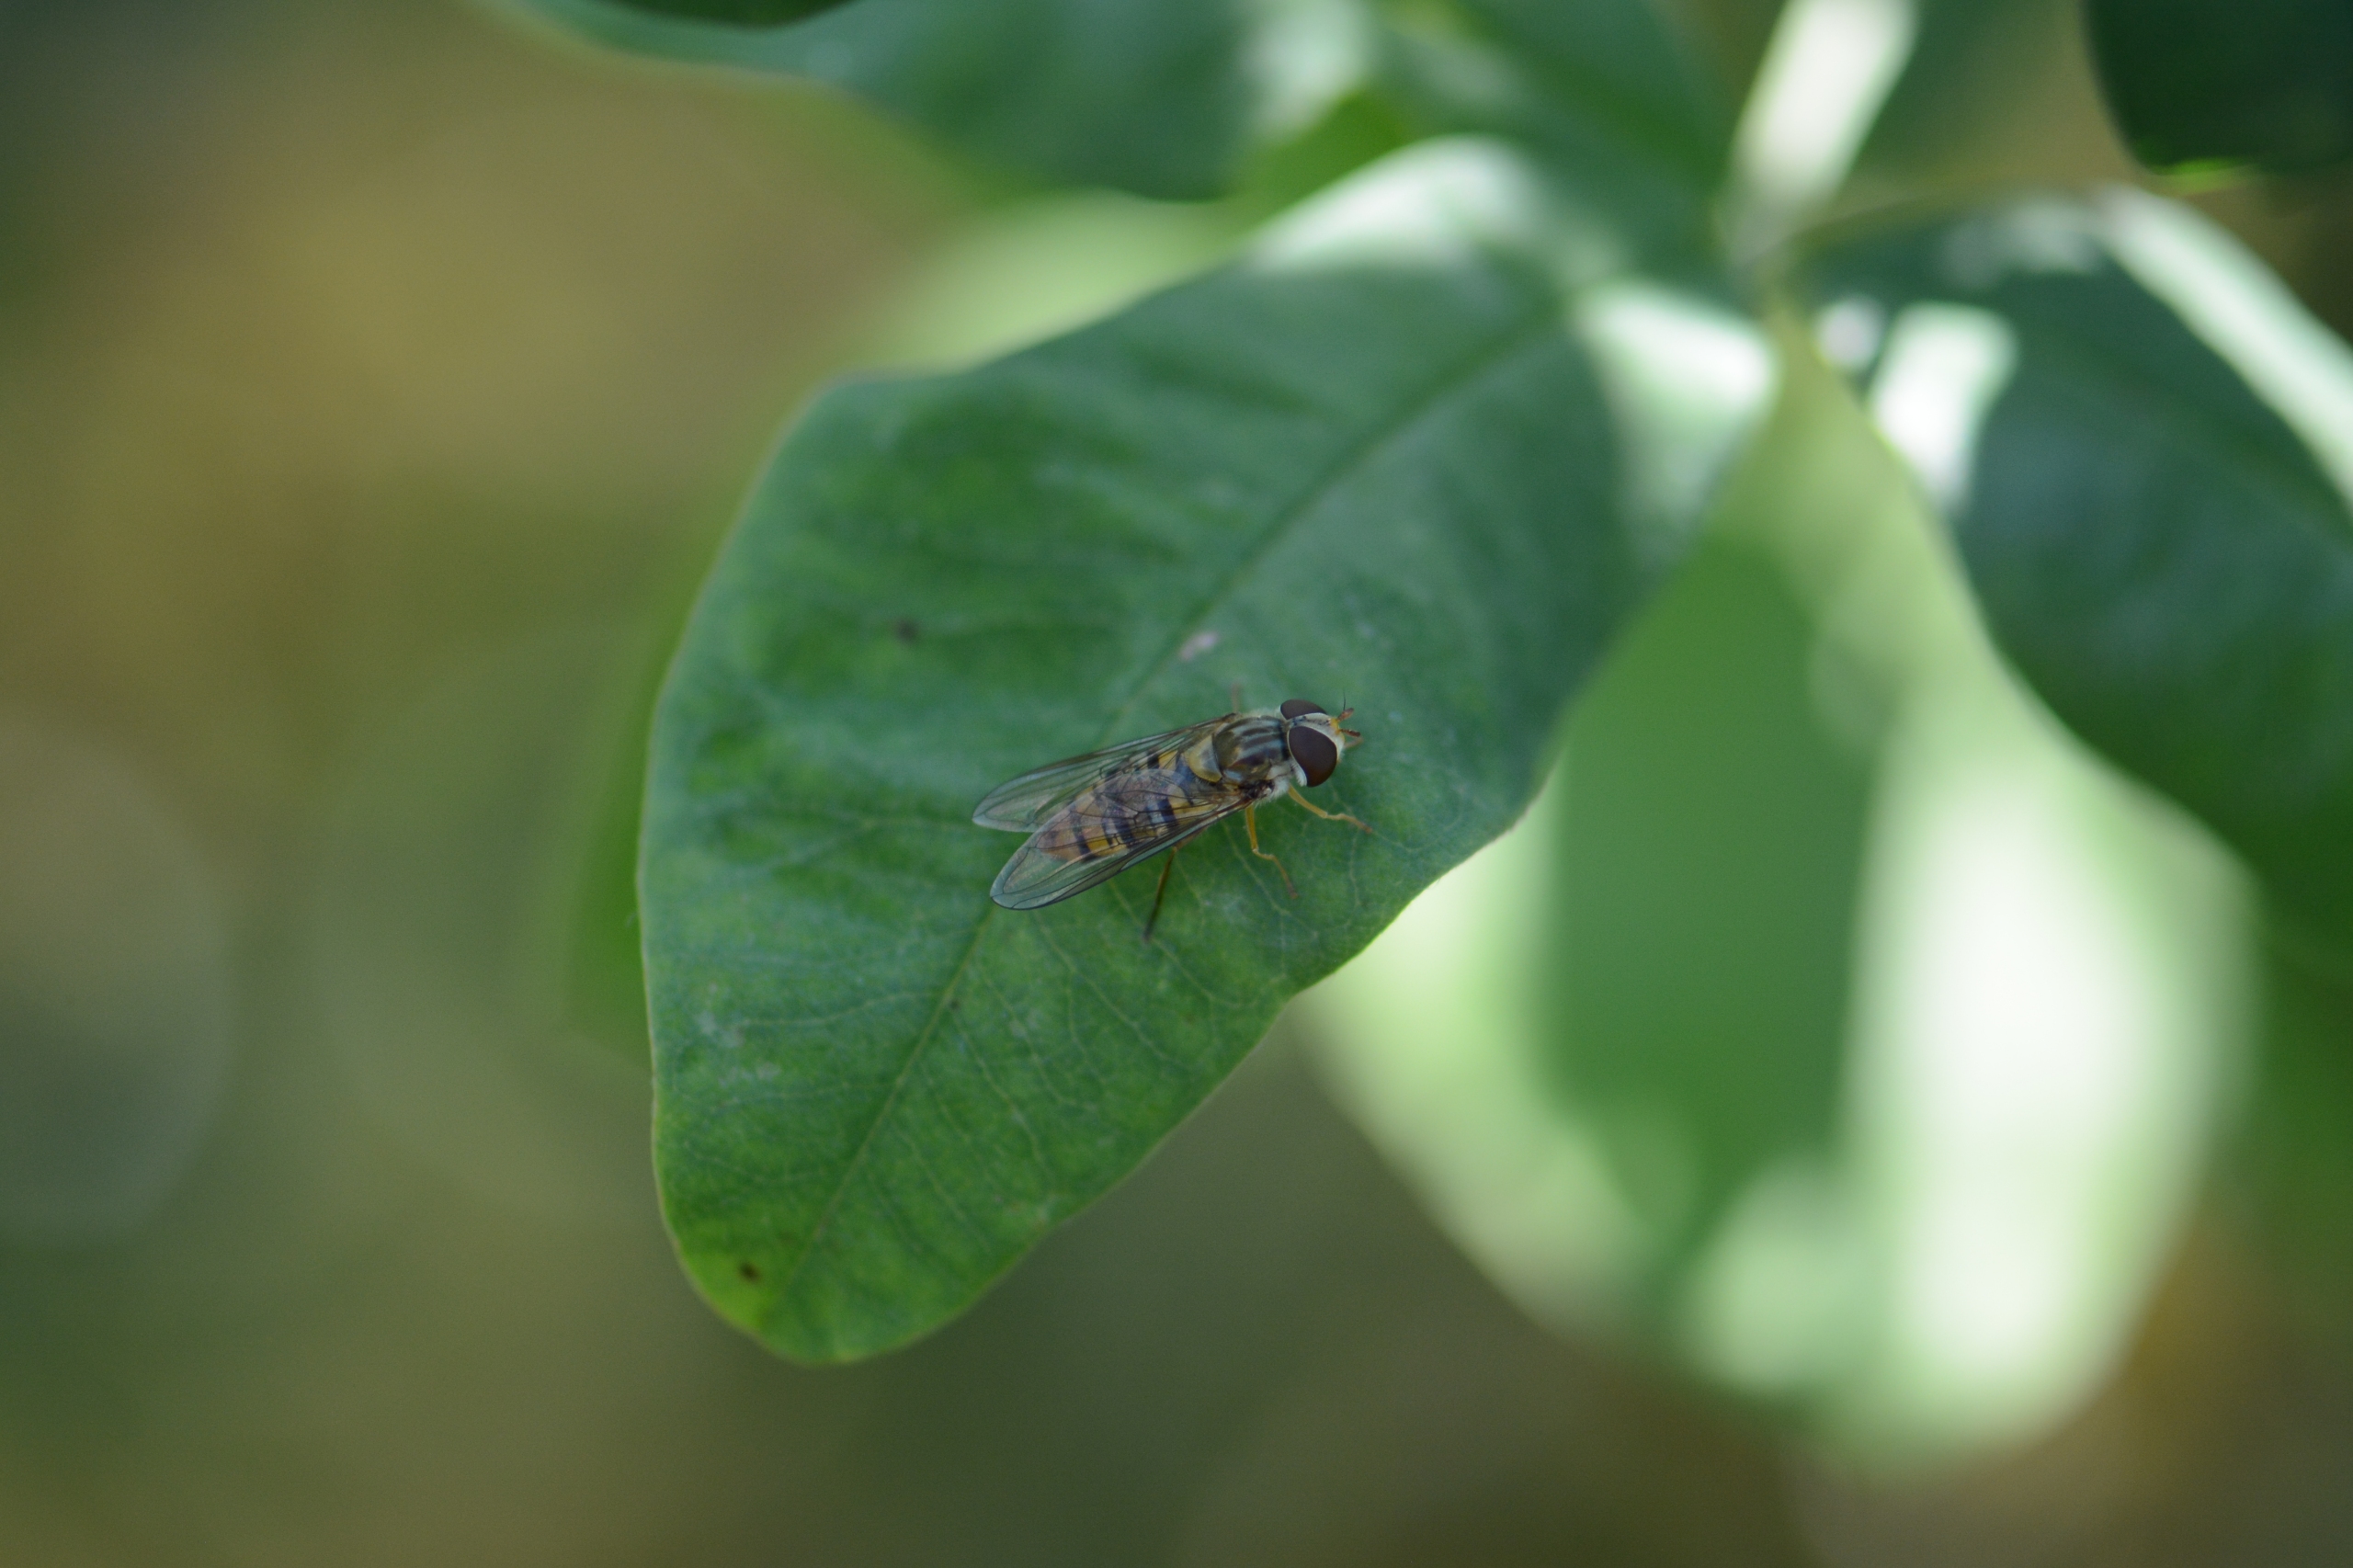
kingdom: Animalia
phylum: Arthropoda
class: Insecta
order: Diptera
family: Syrphidae
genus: Episyrphus
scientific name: Episyrphus balteatus
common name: Dobbeltbåndet svirreflue
